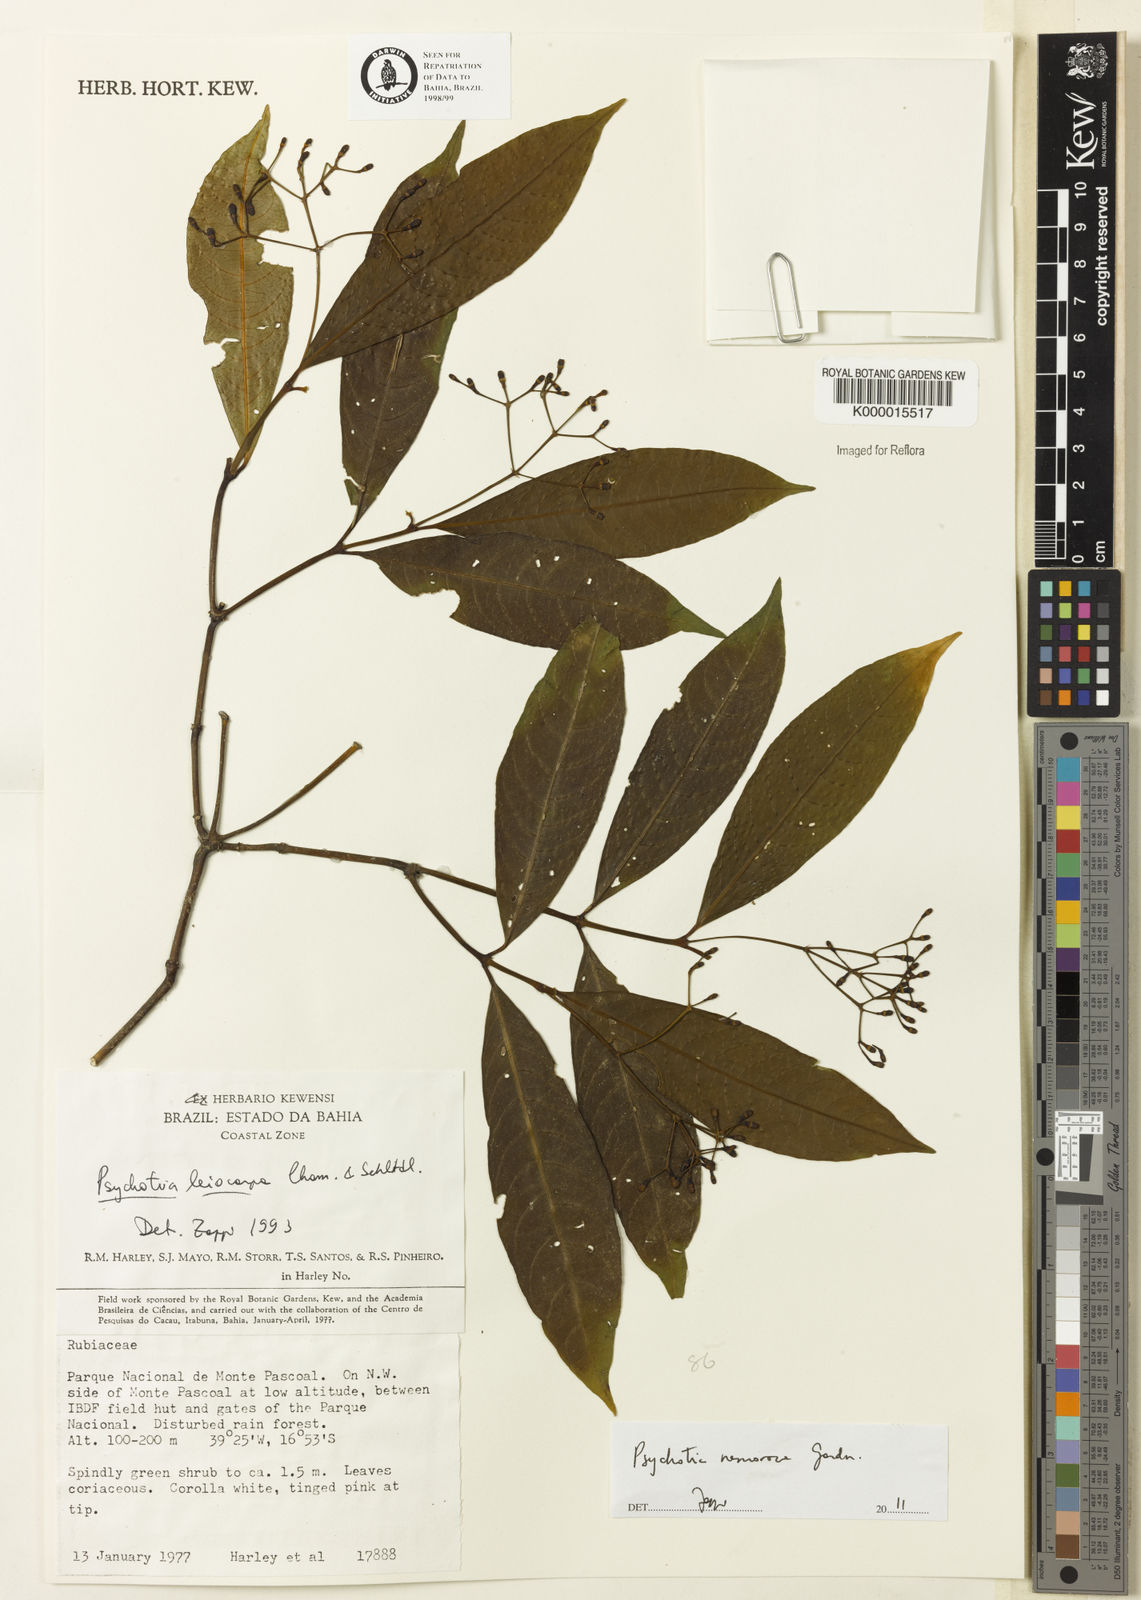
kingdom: Plantae
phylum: Tracheophyta
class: Magnoliopsida
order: Gentianales
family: Rubiaceae
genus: Psychotria
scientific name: Psychotria nemorosa
